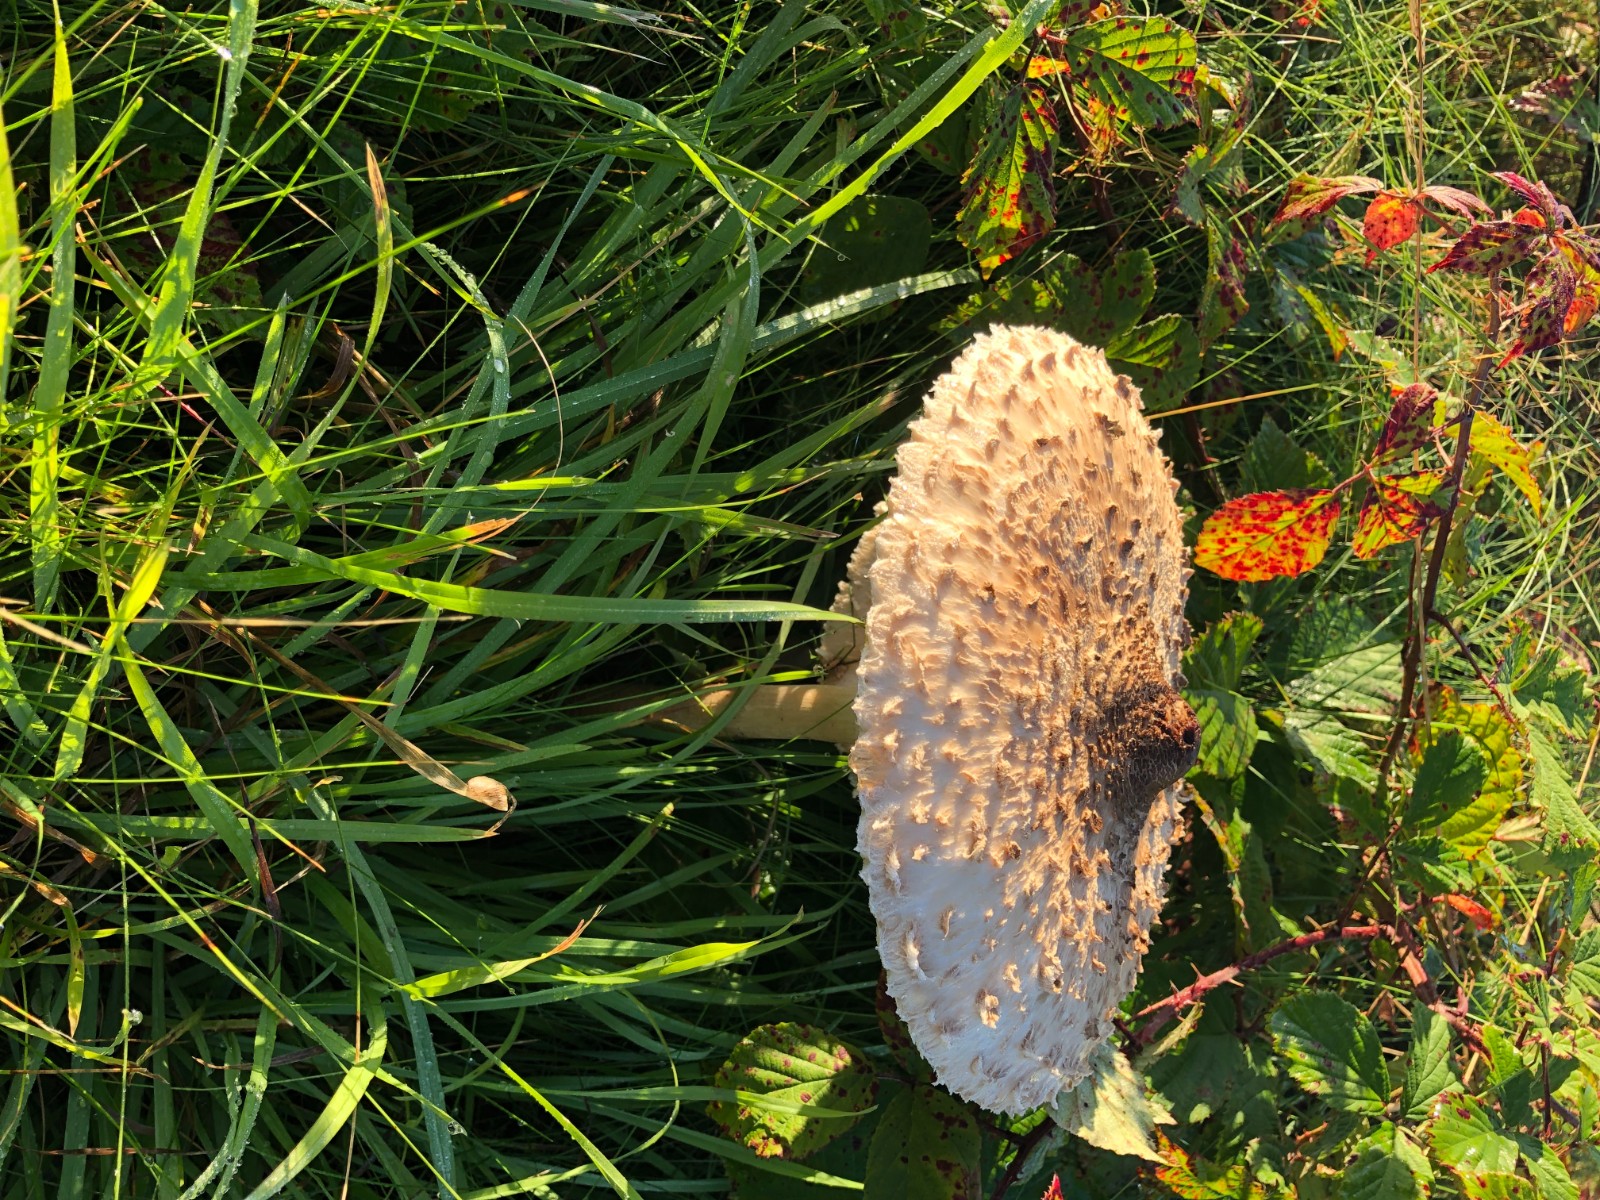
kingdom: Fungi
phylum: Basidiomycota
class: Agaricomycetes
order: Agaricales
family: Agaricaceae
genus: Macrolepiota
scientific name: Macrolepiota procera
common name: stor kæmpeparasolhat
